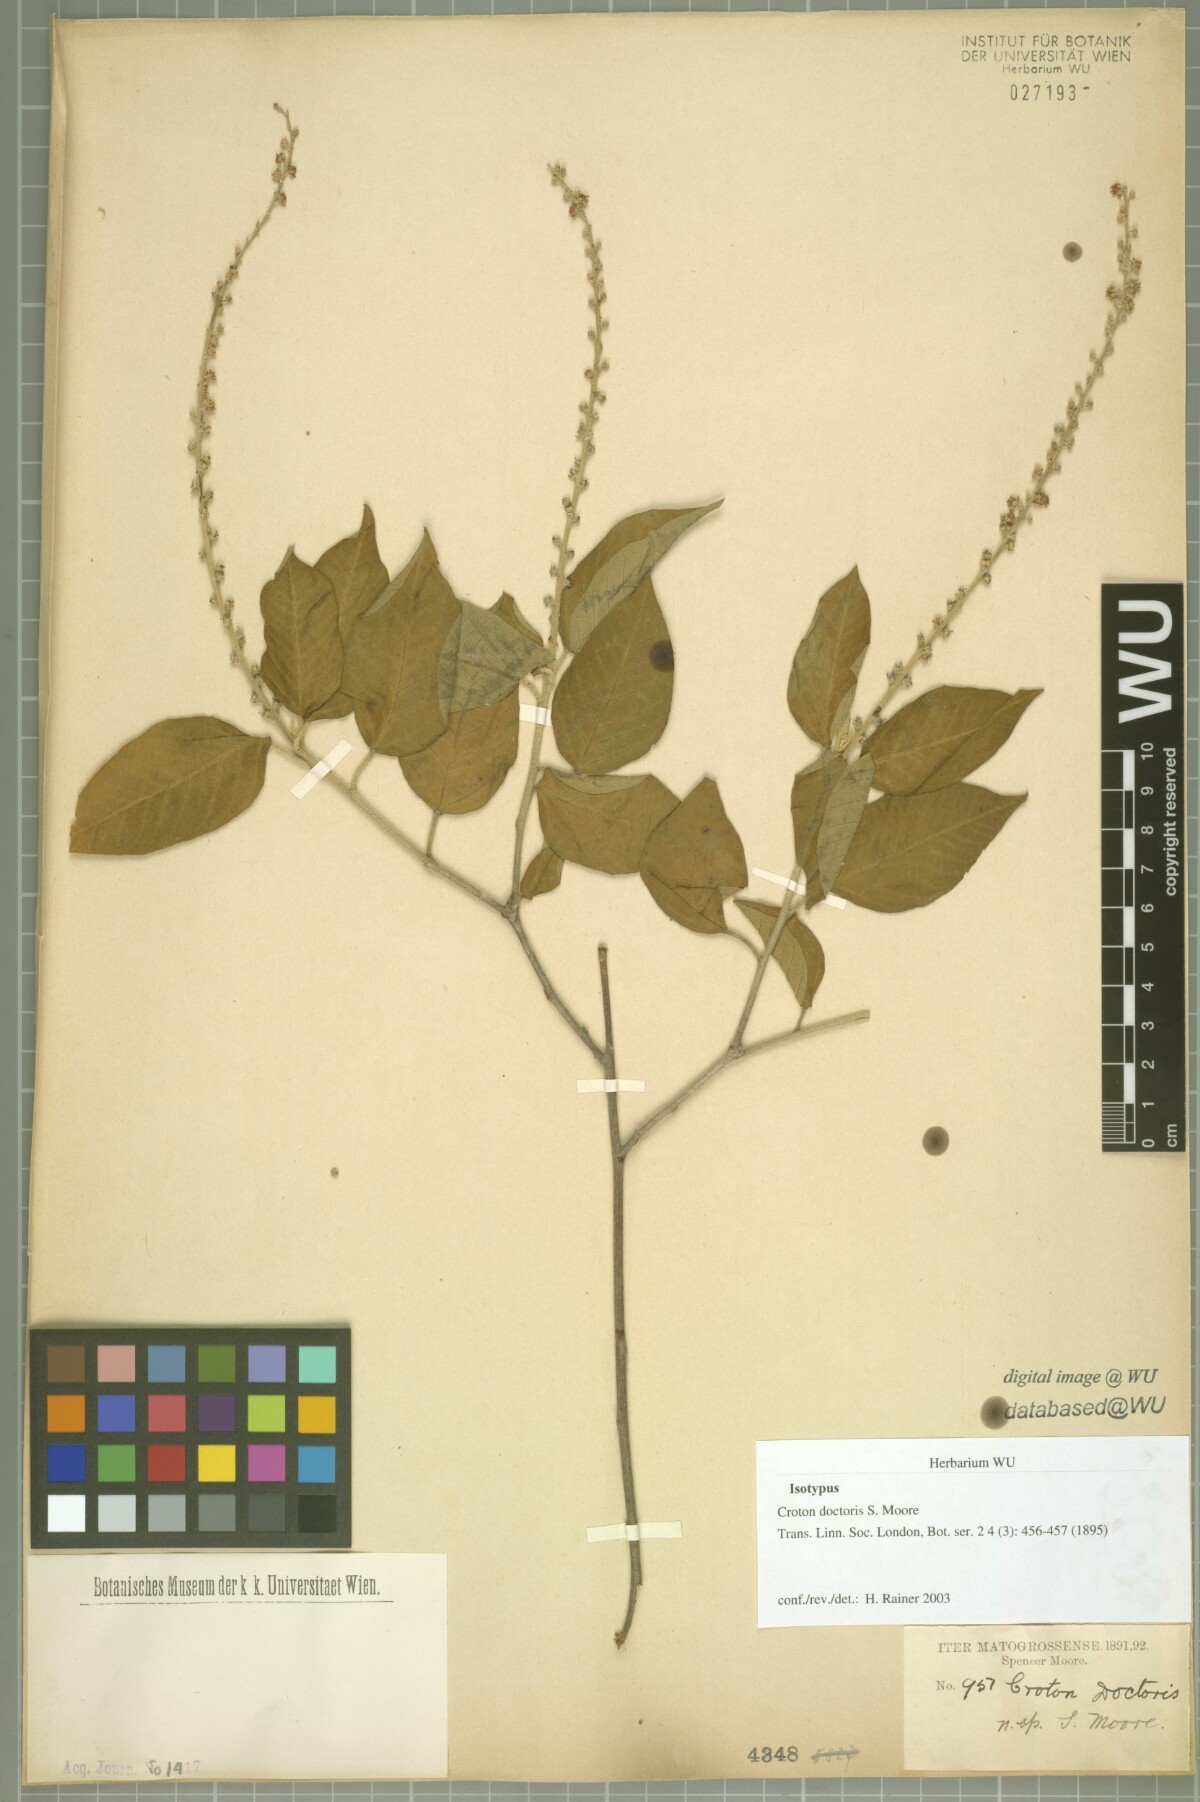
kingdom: Plantae
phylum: Tracheophyta
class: Magnoliopsida
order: Malpighiales
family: Euphorbiaceae
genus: Croton
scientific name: Croton doctoris
